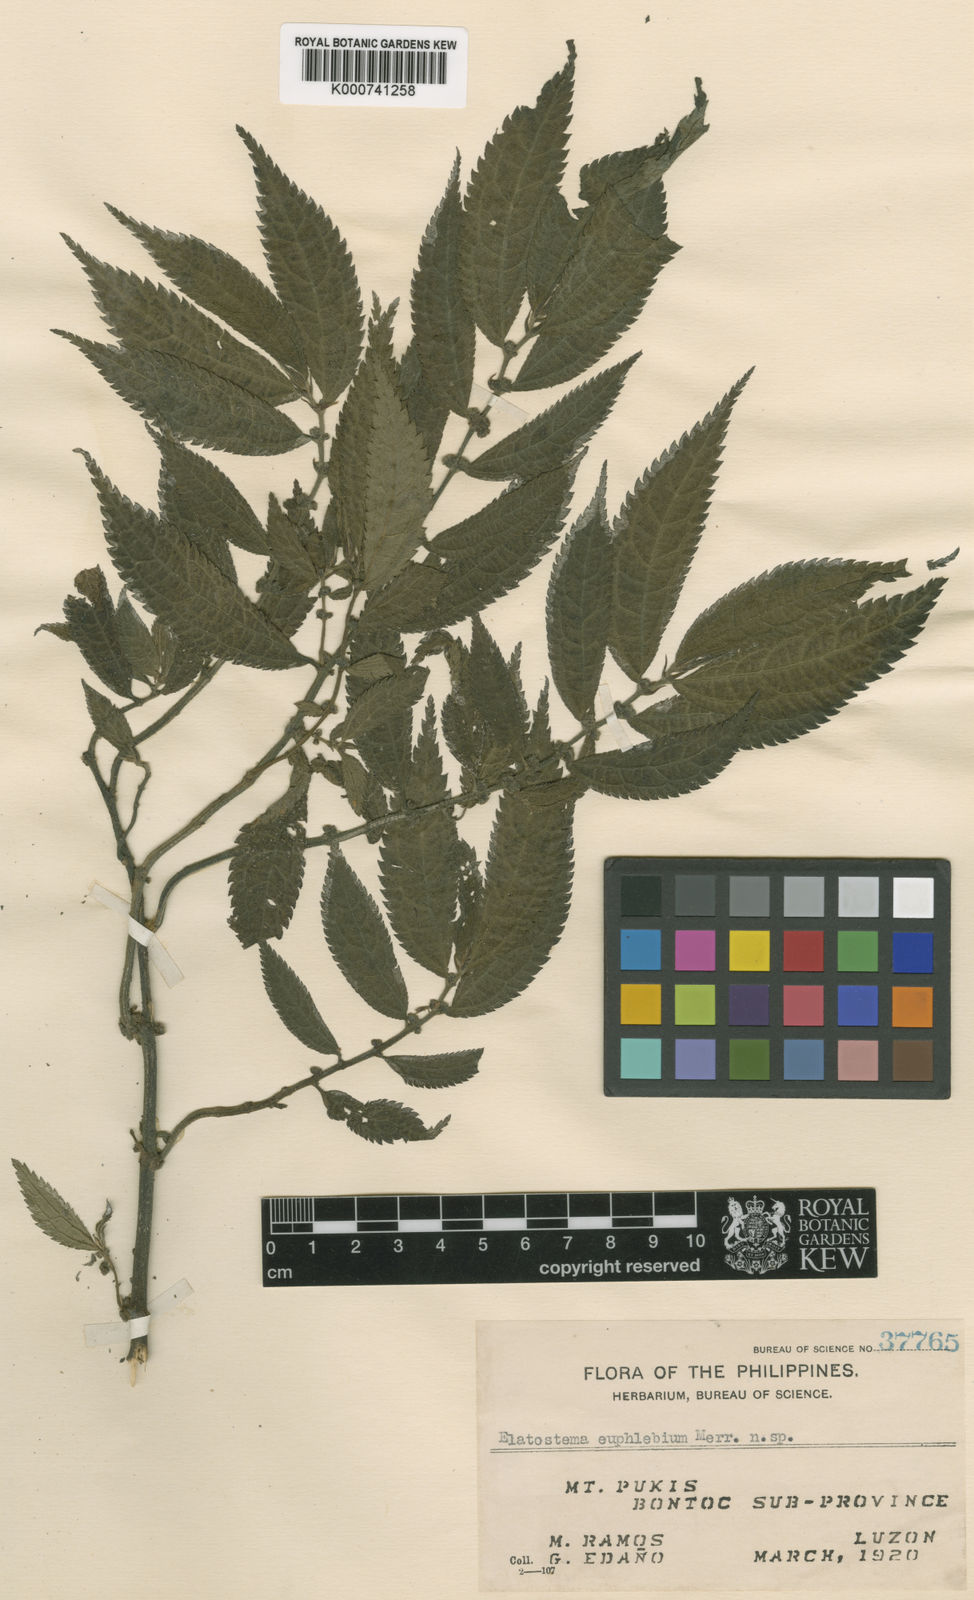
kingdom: Plantae
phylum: Tracheophyta
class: Magnoliopsida
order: Rosales
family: Urticaceae
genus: Elatostema
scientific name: Elatostema euphlebium
